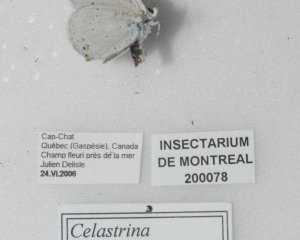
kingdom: Animalia
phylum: Arthropoda
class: Insecta
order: Lepidoptera
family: Lycaenidae
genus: Celastrina
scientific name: Celastrina lucia
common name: Northern Spring Azure
